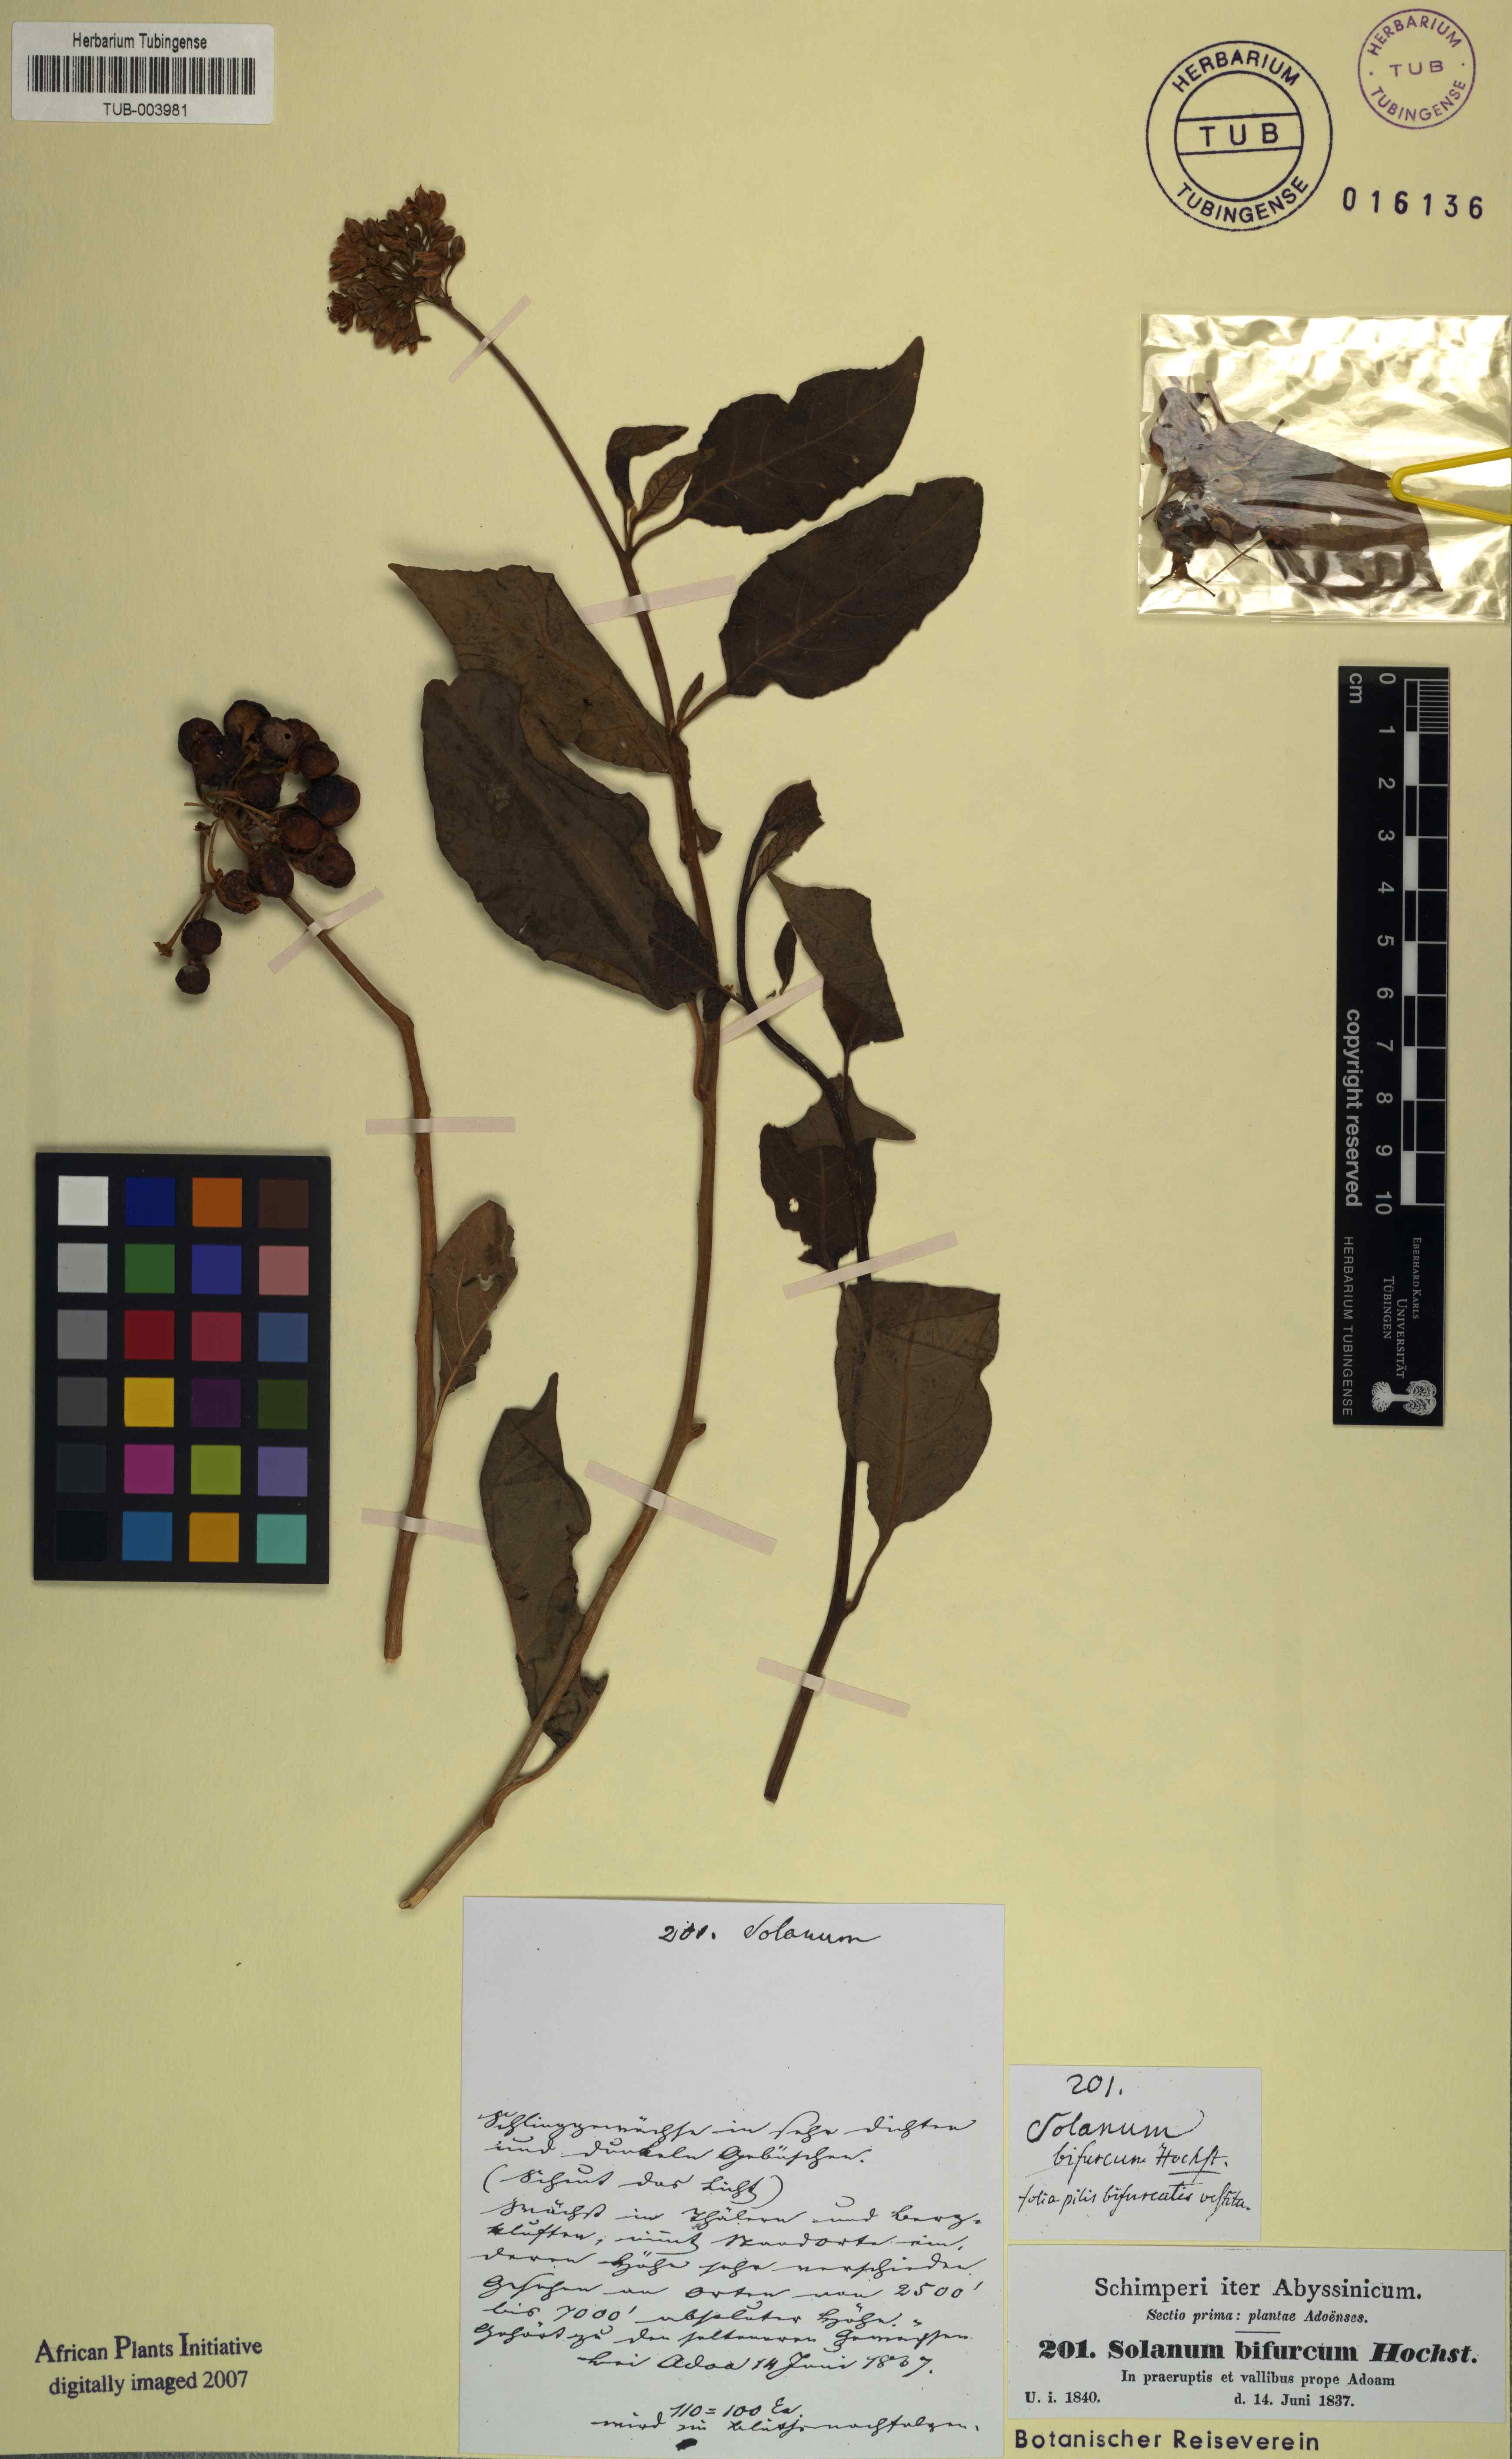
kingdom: Plantae
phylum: Tracheophyta
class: Magnoliopsida
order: Solanales
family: Solanaceae
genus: Solanum
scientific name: Solanum terminale
